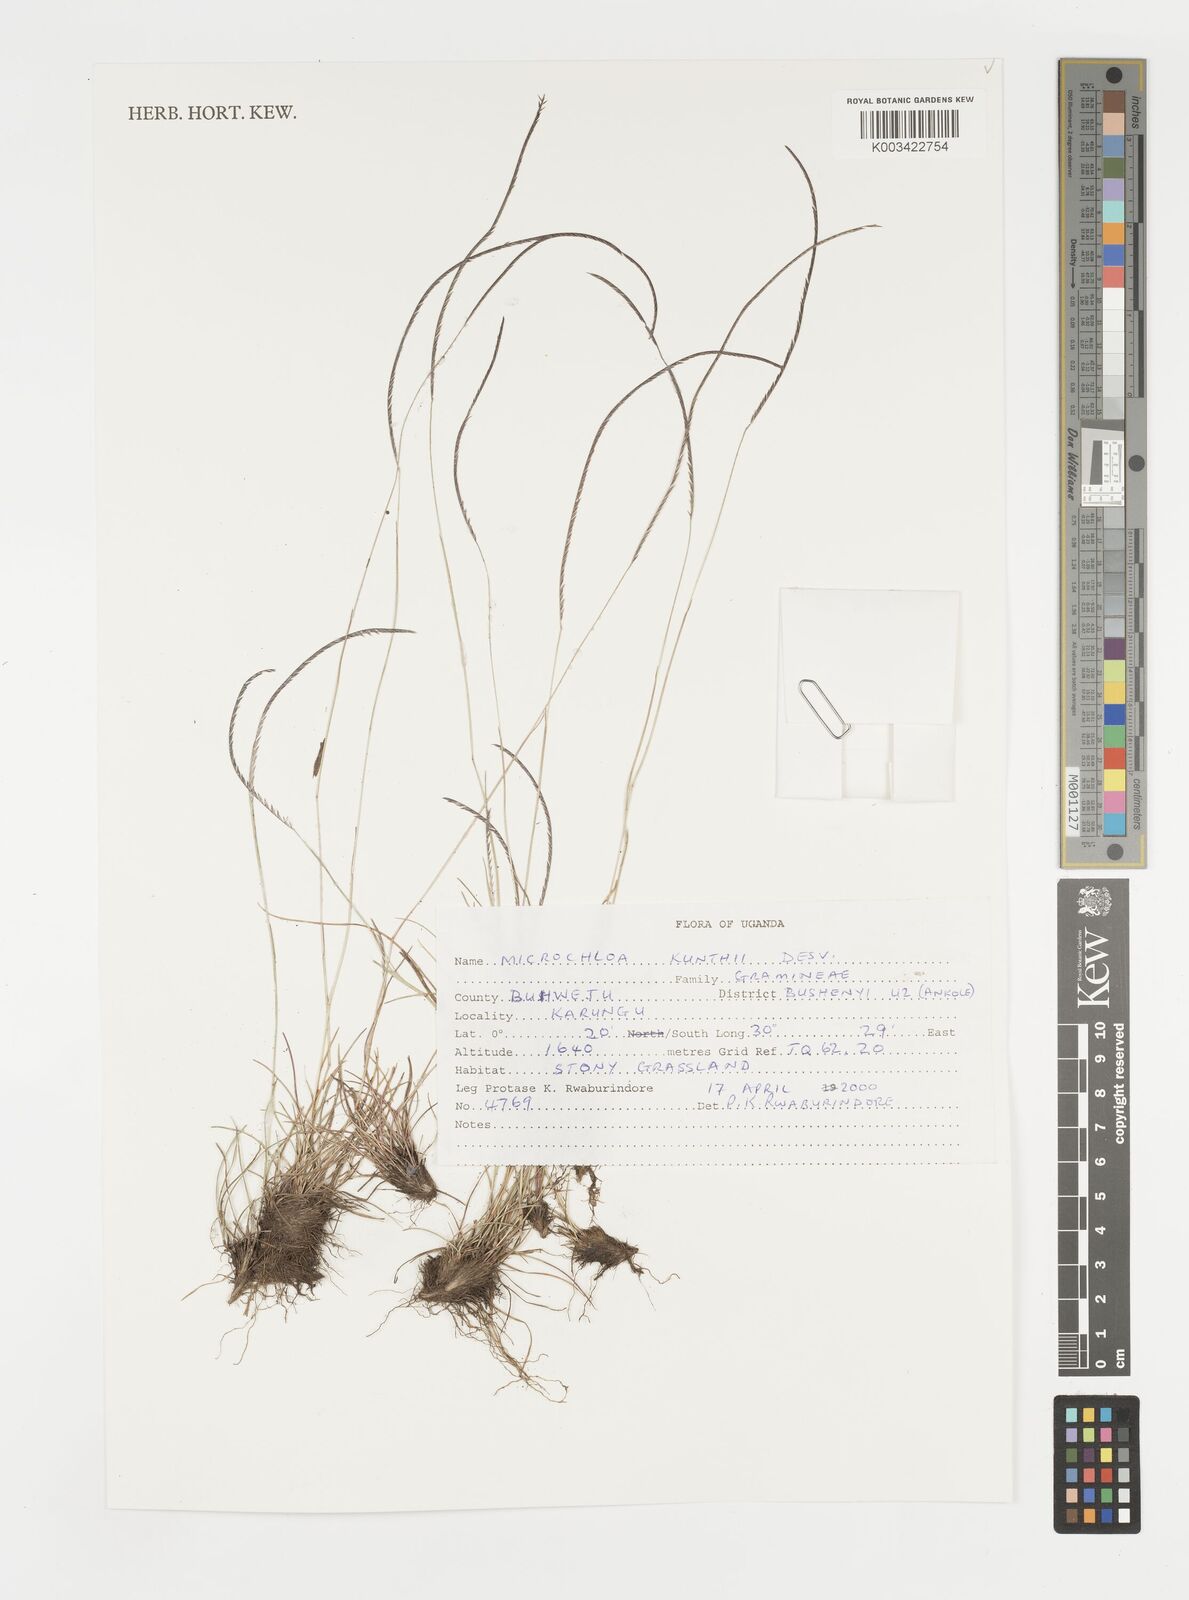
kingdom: Plantae
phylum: Tracheophyta
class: Liliopsida
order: Poales
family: Poaceae
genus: Microchloa
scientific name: Microchloa kunthii
